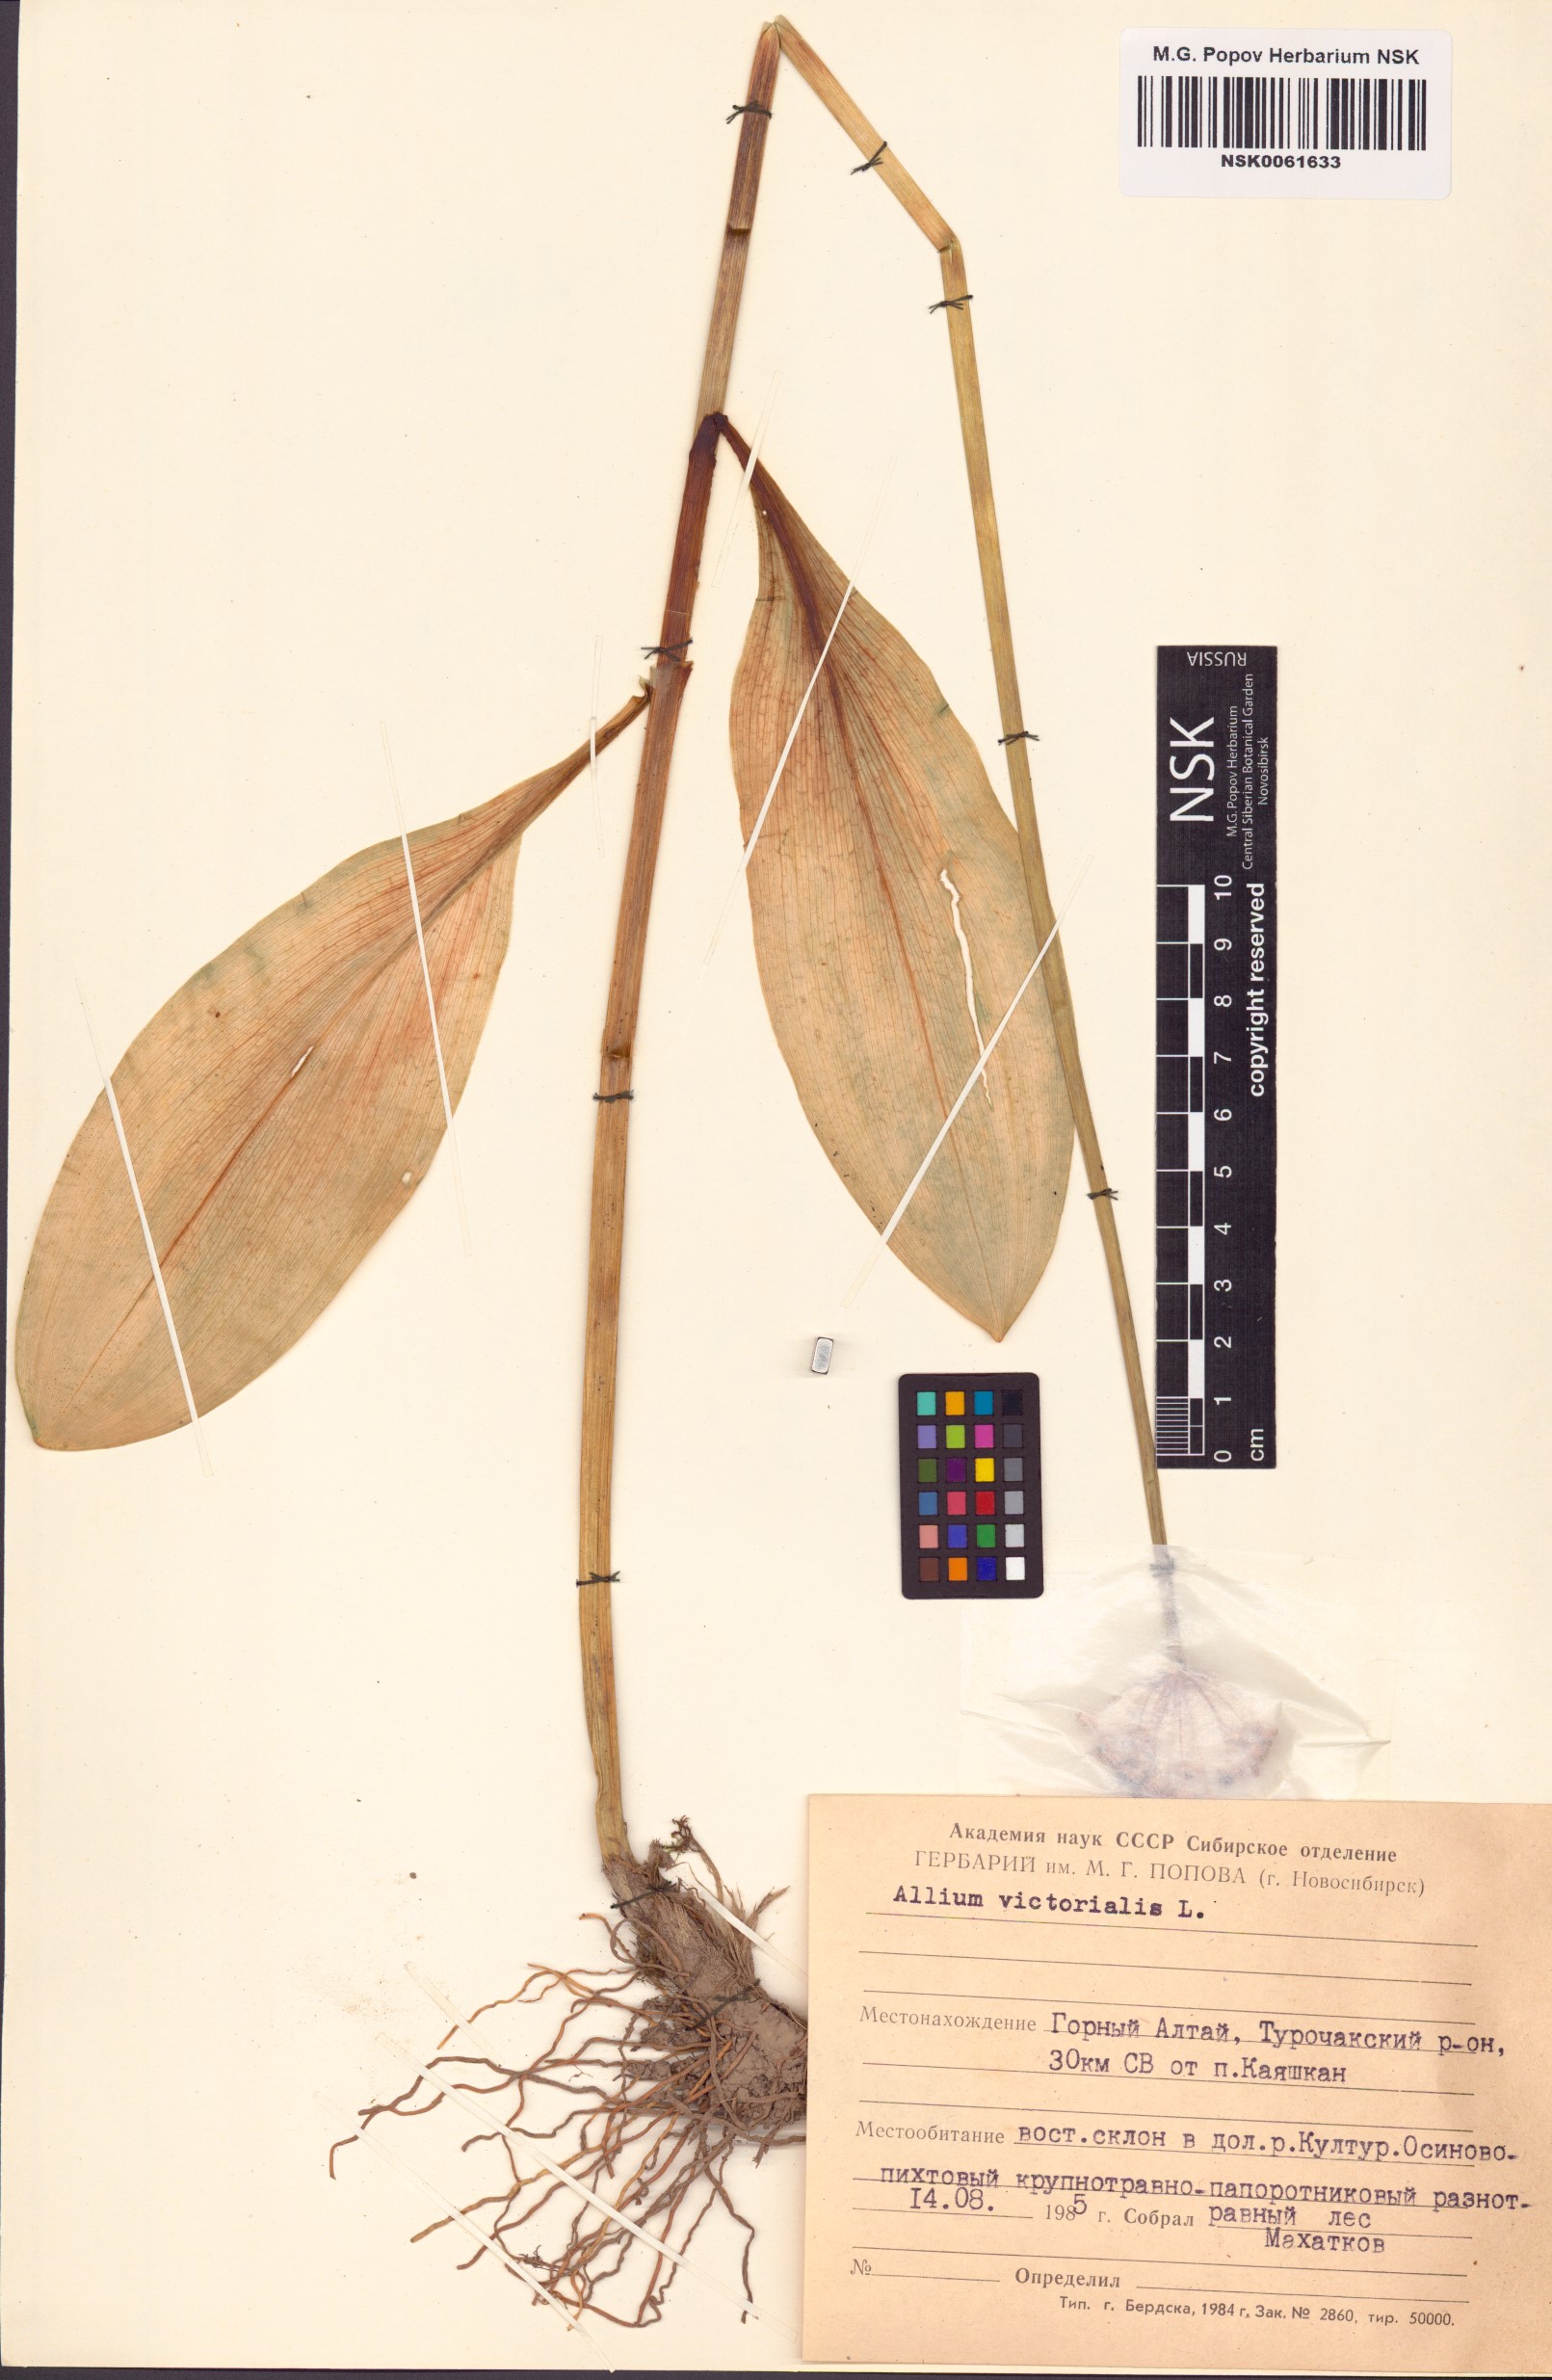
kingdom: Plantae
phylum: Tracheophyta
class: Liliopsida
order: Asparagales
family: Amaryllidaceae
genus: Allium
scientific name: Allium victorialis
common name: Alpine leek
